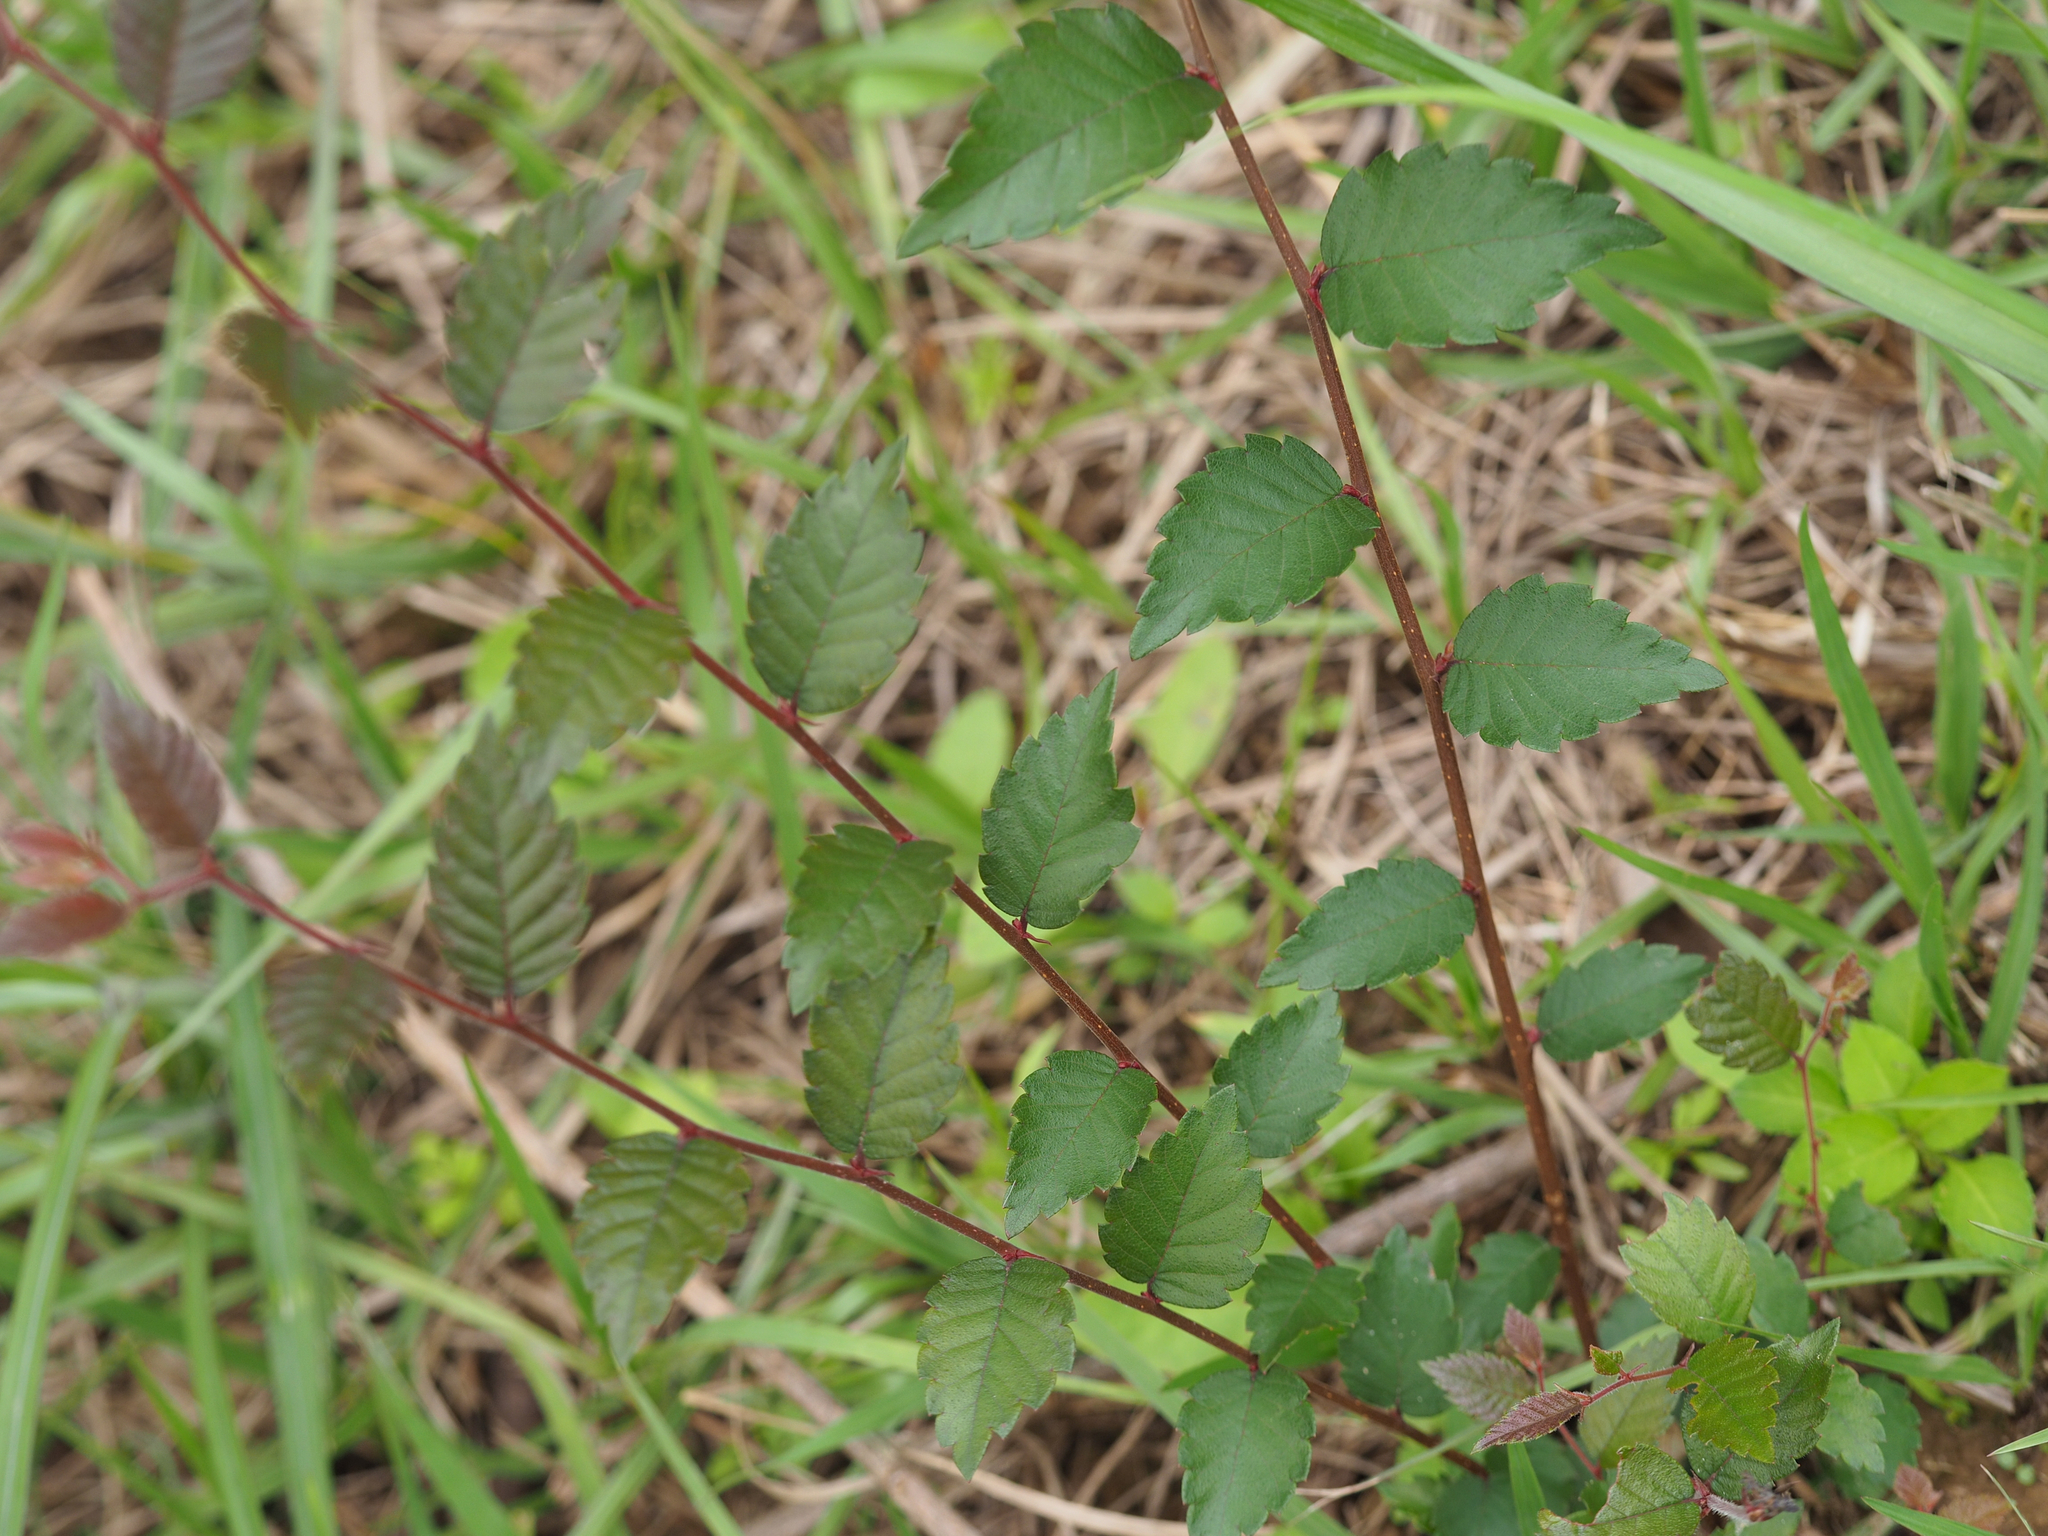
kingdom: Plantae
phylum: Tracheophyta
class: Magnoliopsida
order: Rosales
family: Ulmaceae
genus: Zelkova
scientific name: Zelkova serrata
